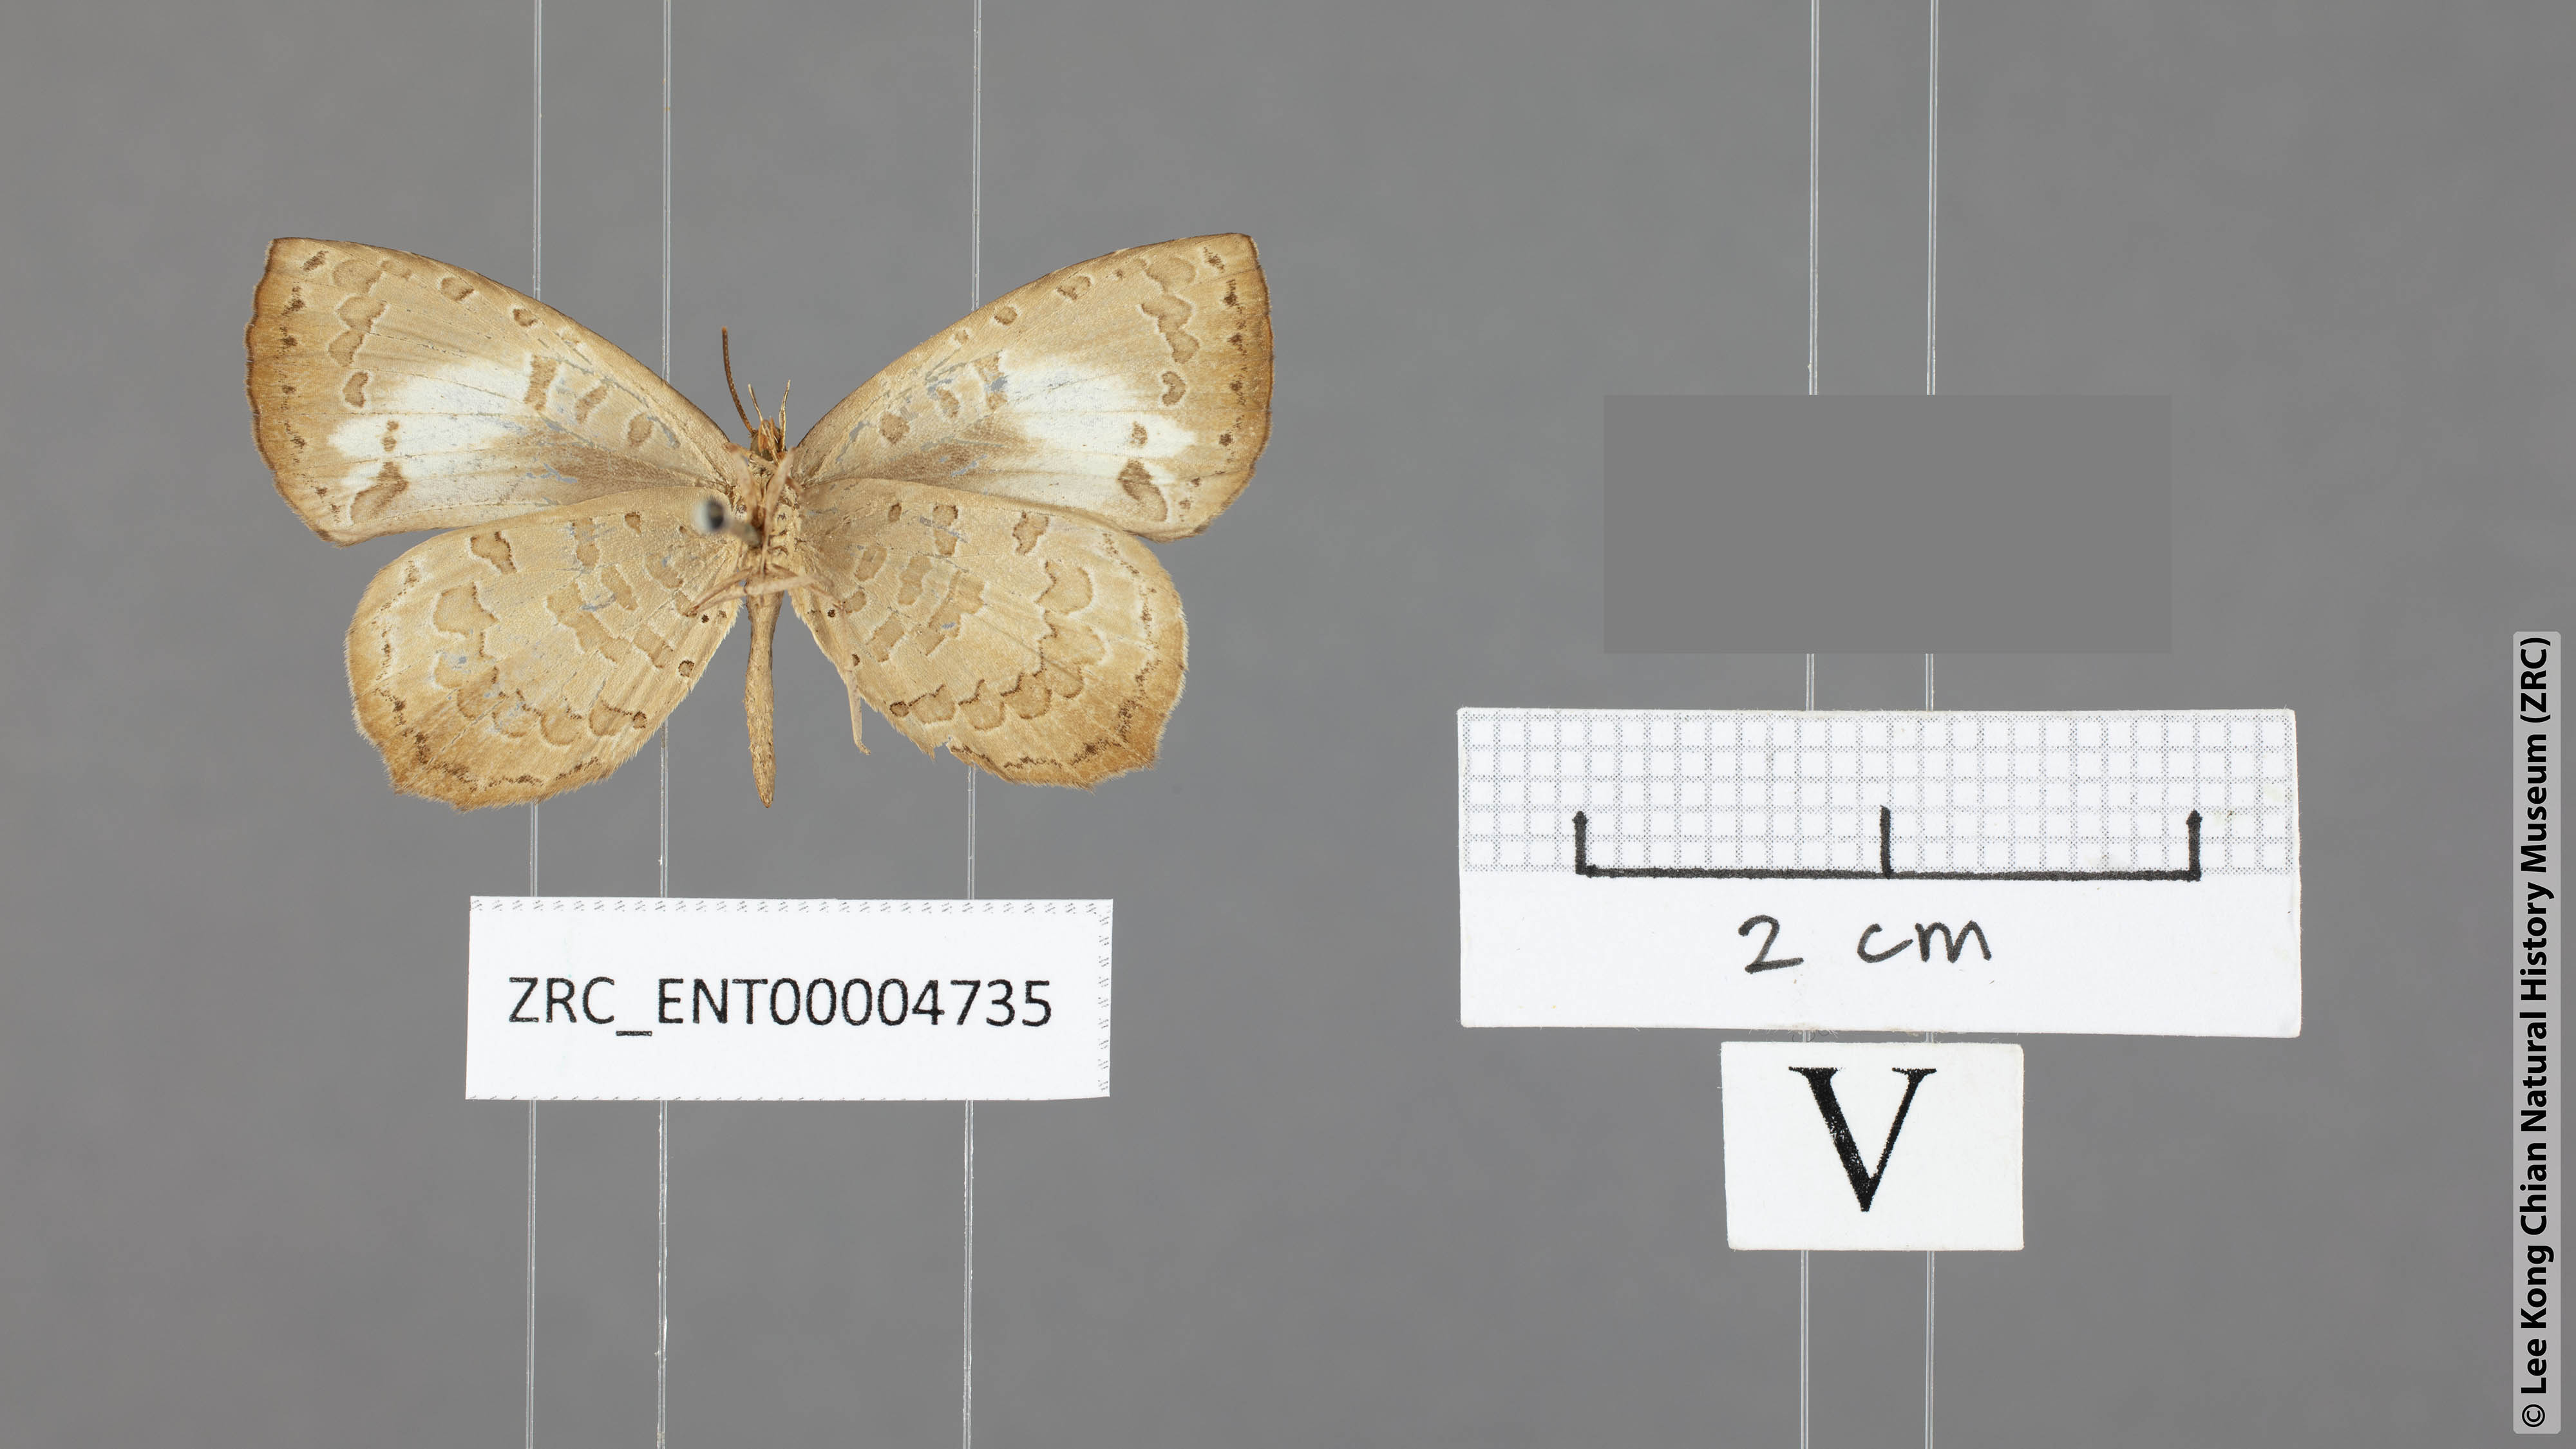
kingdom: Animalia
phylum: Arthropoda
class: Insecta
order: Lepidoptera
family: Lycaenidae
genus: Miletus
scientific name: Miletus heracleion
